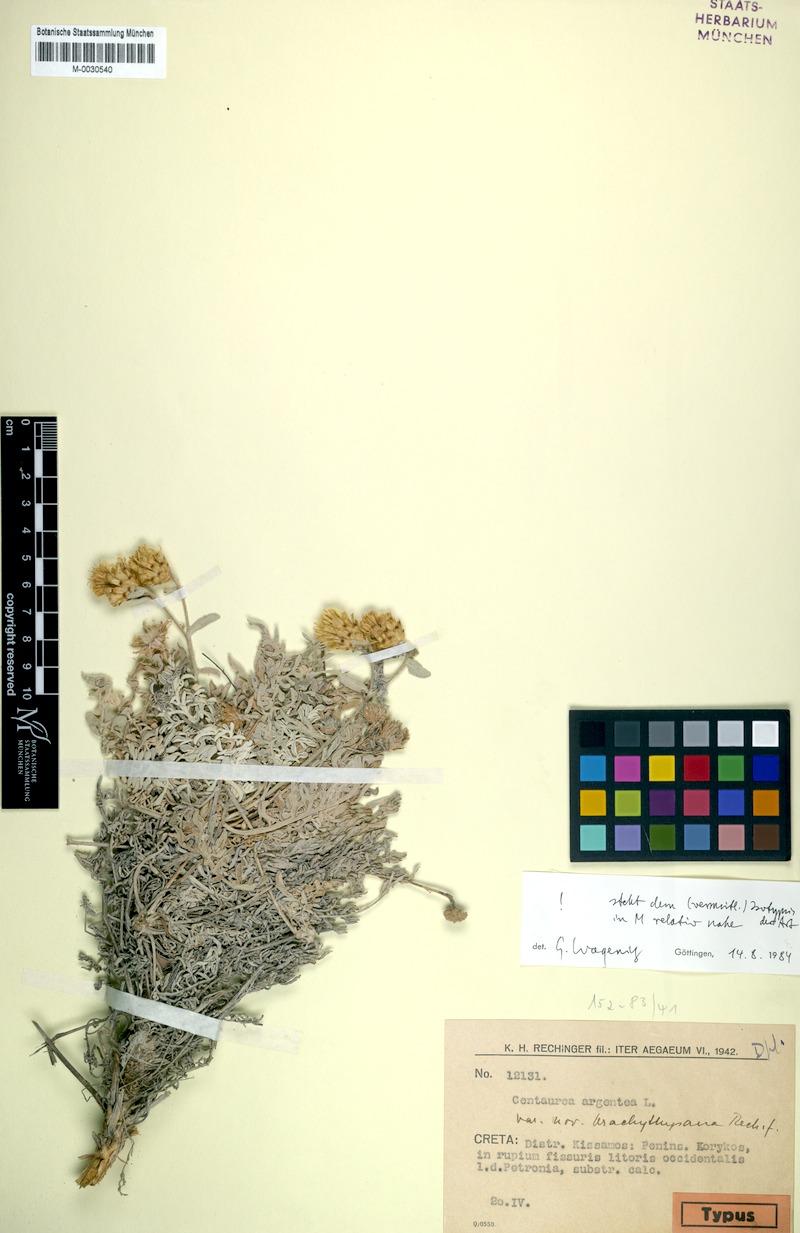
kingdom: Plantae
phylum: Tracheophyta
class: Magnoliopsida
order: Asterales
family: Asteraceae
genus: Centaurea
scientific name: Centaurea argentea
